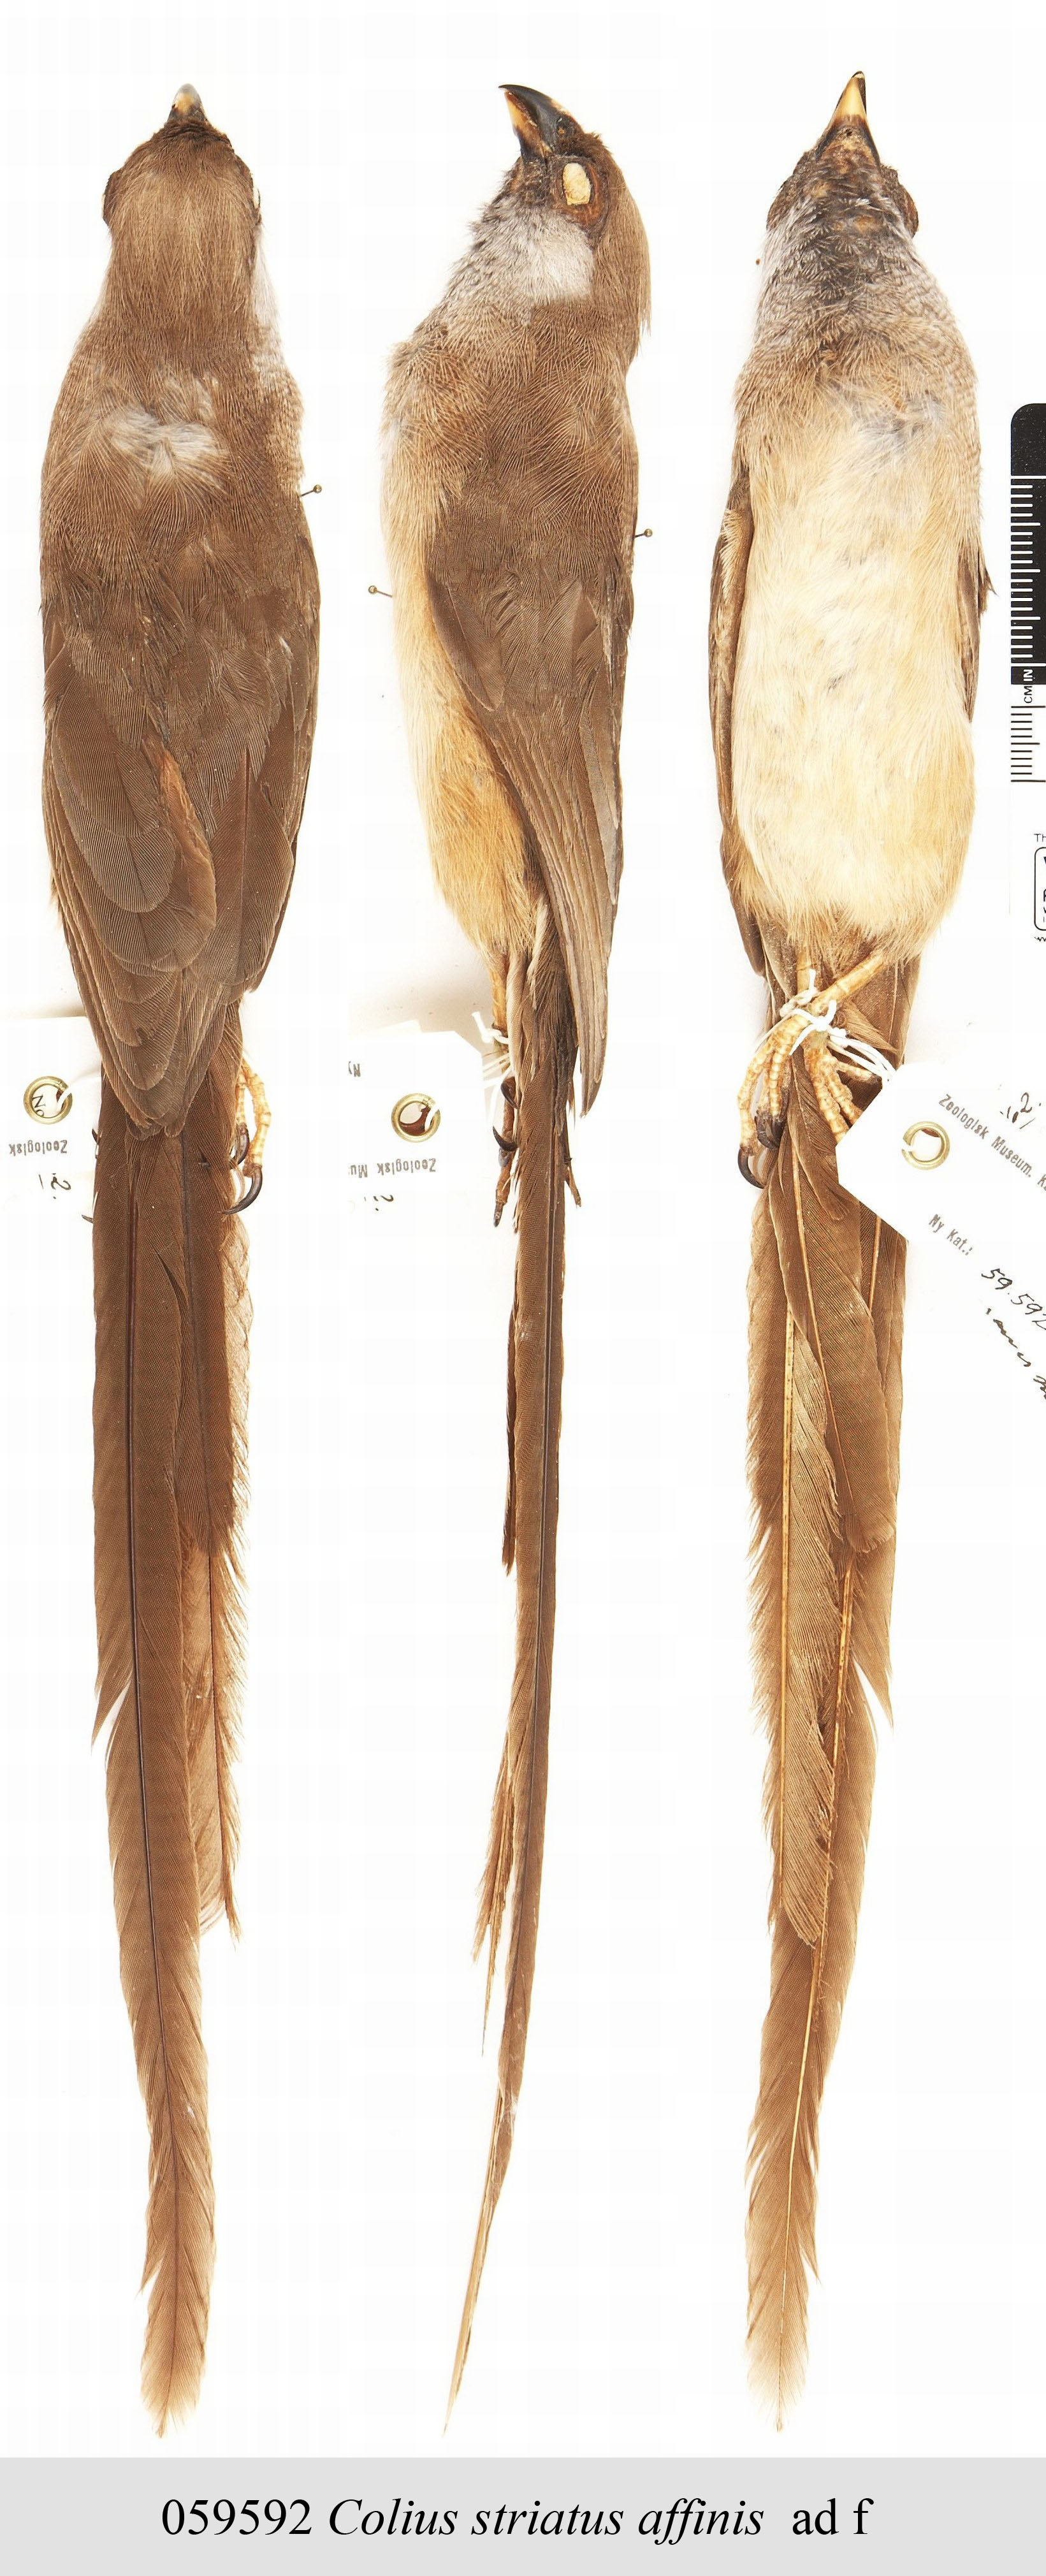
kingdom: Animalia
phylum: Chordata
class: Aves
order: Coliiformes
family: Coliidae
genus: Colius
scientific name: Colius striatus
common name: Speckled mousebird
